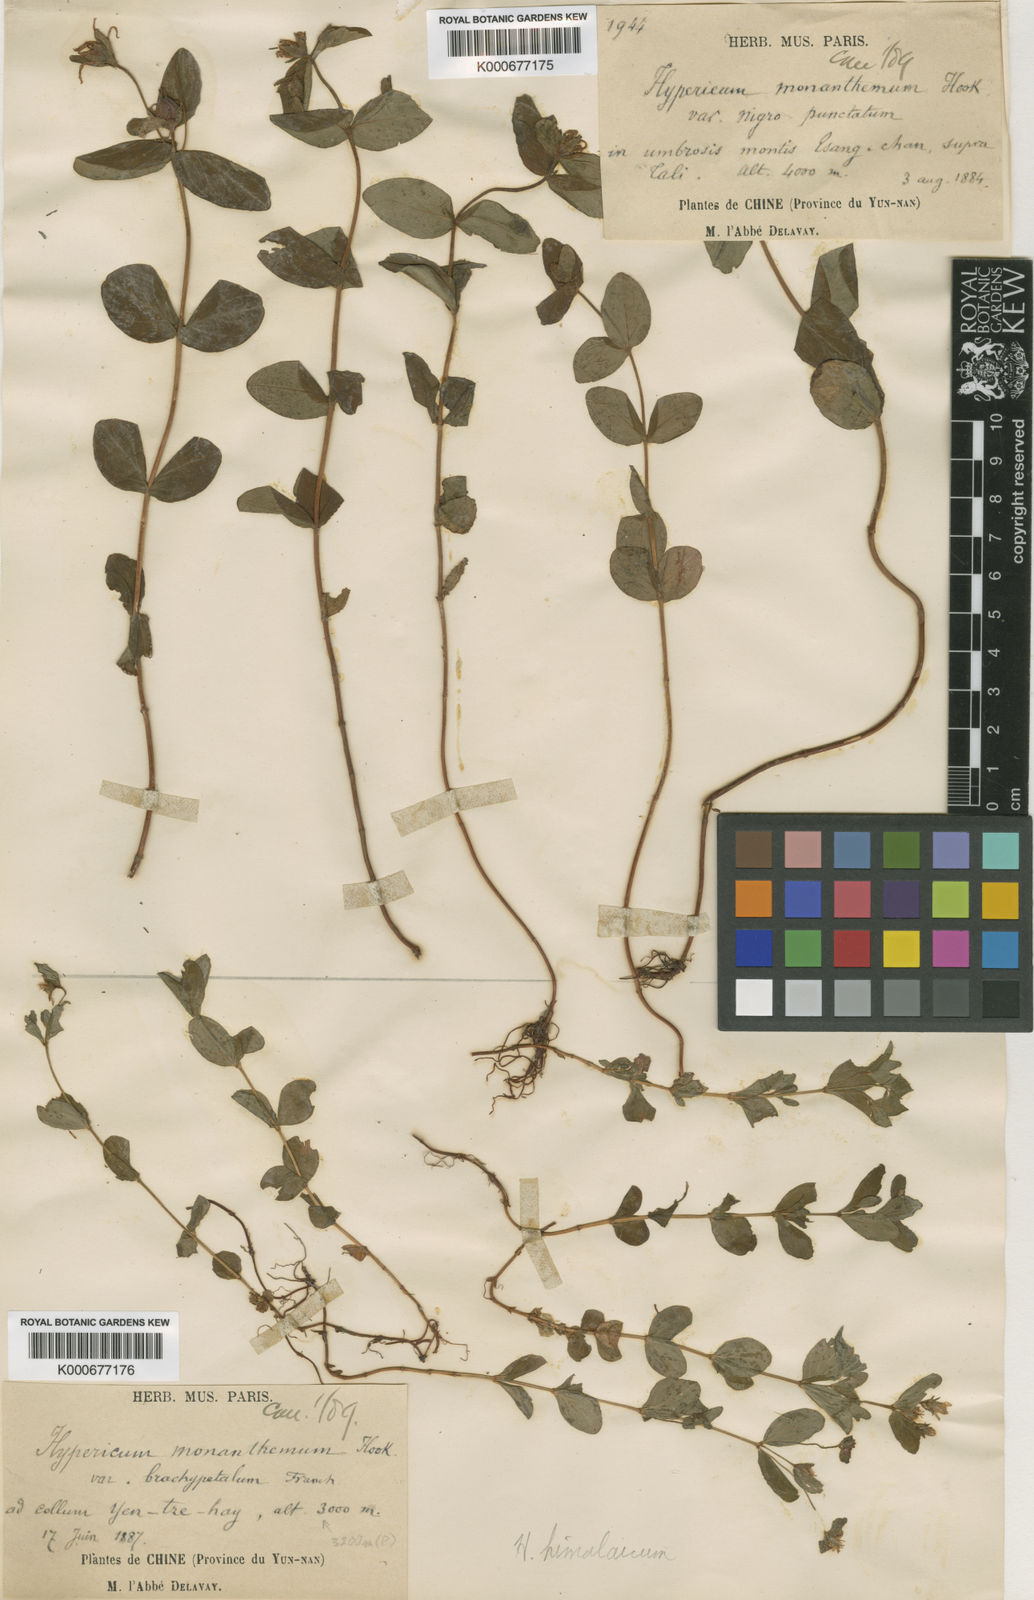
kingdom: Plantae
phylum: Tracheophyta
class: Magnoliopsida
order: Malpighiales
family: Hypericaceae
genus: Hypericum
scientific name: Hypericum monanthemum
